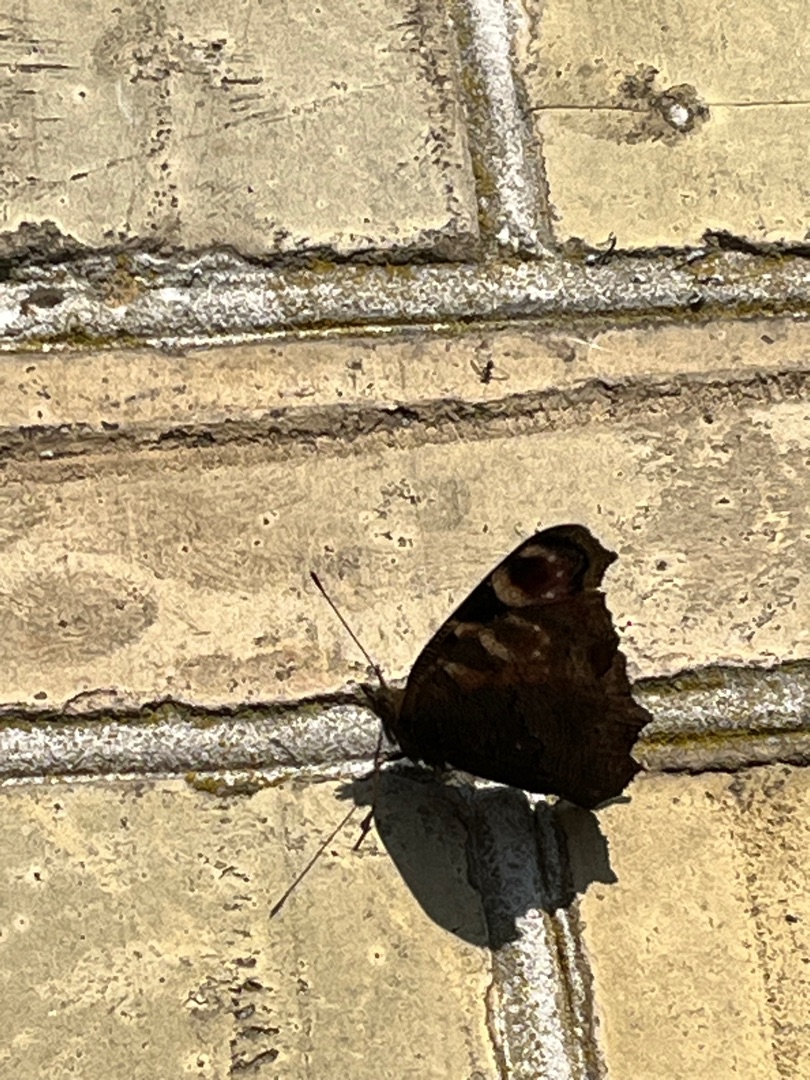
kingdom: Animalia
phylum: Arthropoda
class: Insecta
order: Lepidoptera
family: Nymphalidae
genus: Aglais
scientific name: Aglais io
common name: Dagpåfugleøje
